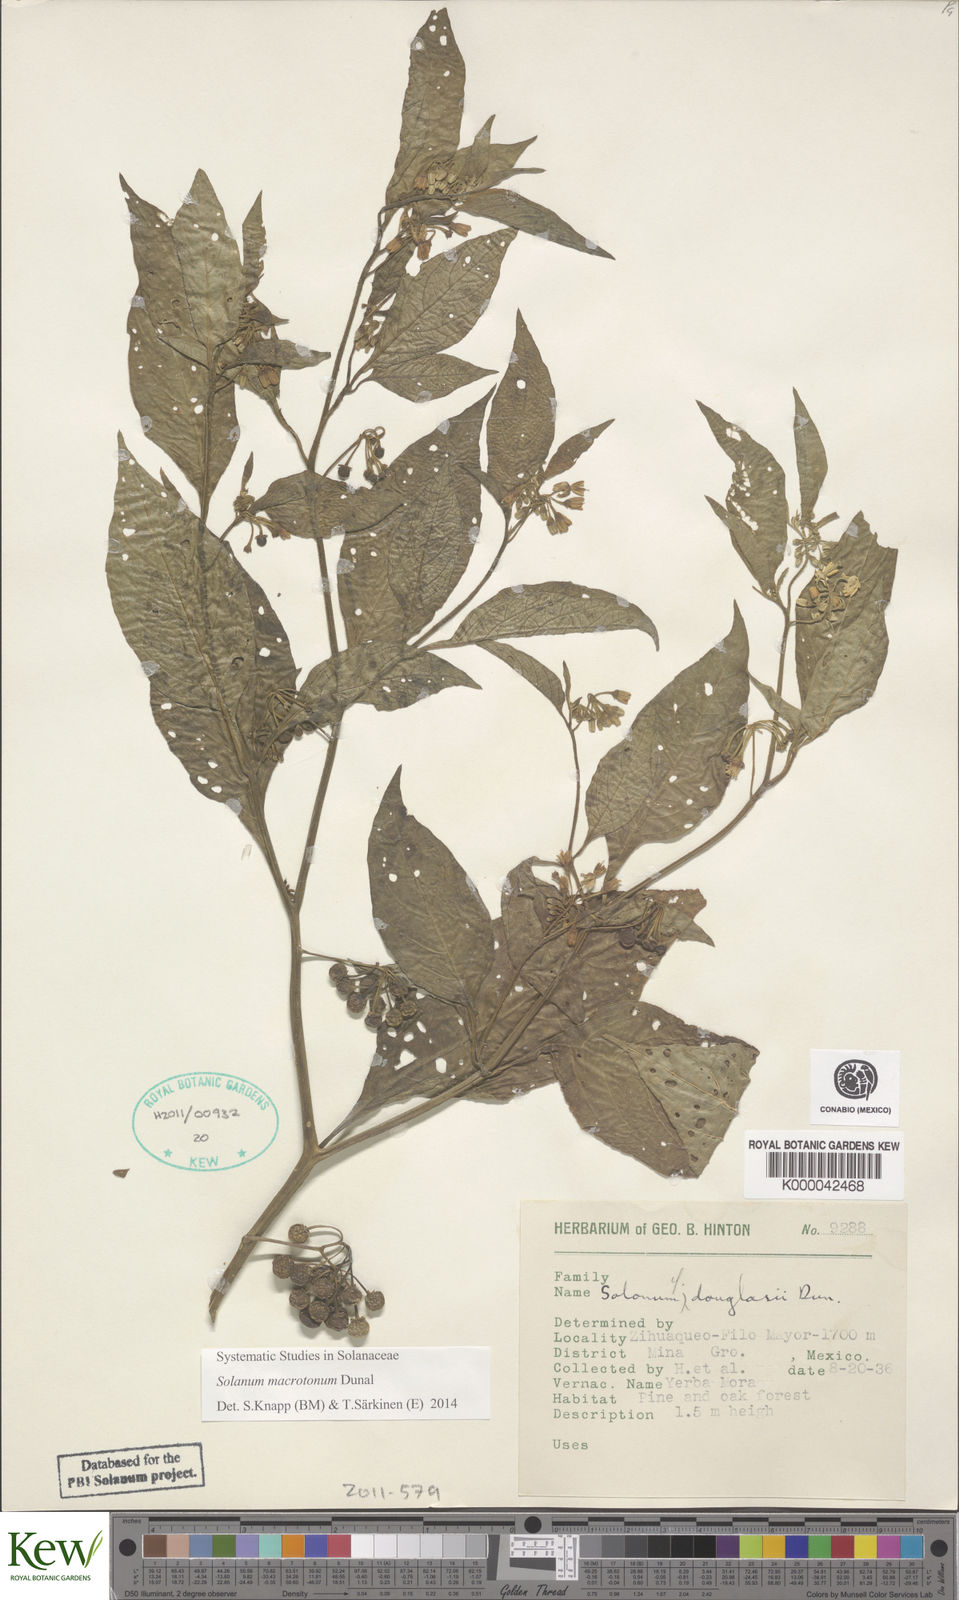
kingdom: Plantae
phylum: Tracheophyta
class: Magnoliopsida
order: Solanales
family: Solanaceae
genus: Solanum
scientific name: Solanum douglasii
